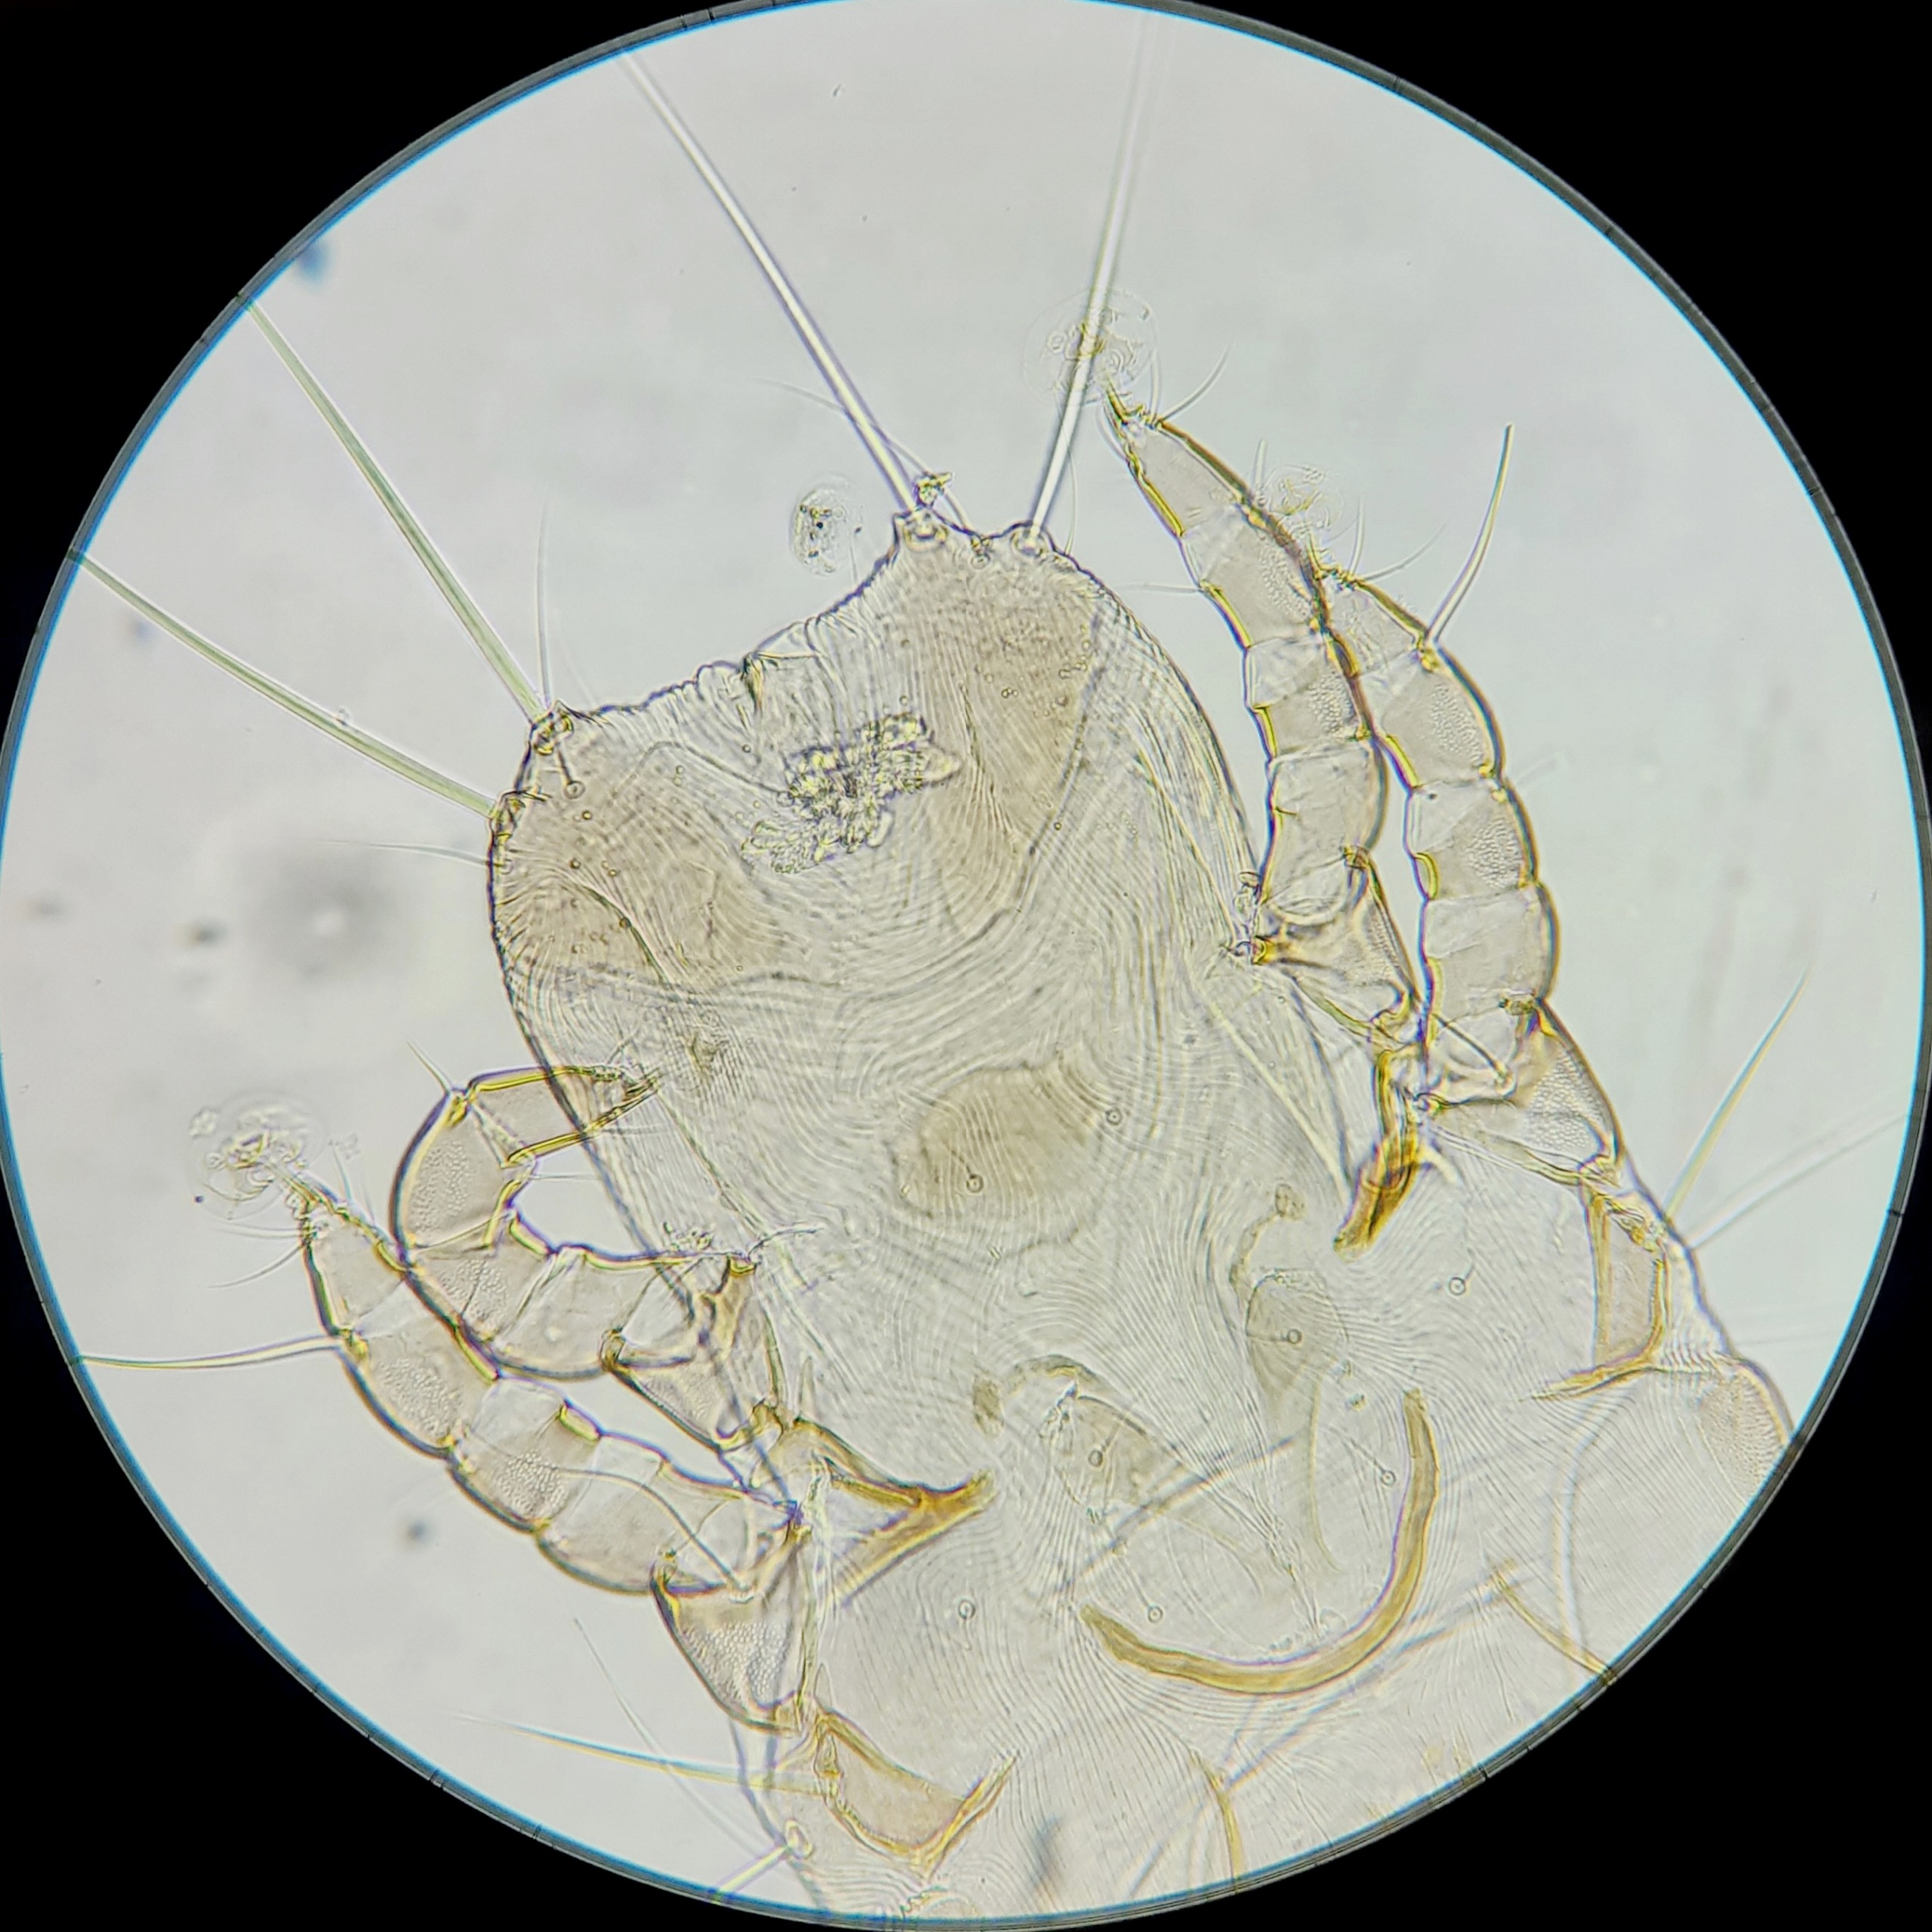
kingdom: Animalia
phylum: Arthropoda
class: Arachnida
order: Sarcoptiformes
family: Pteronyssidae
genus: Pteronyssoides
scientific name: Pteronyssoides parinus
